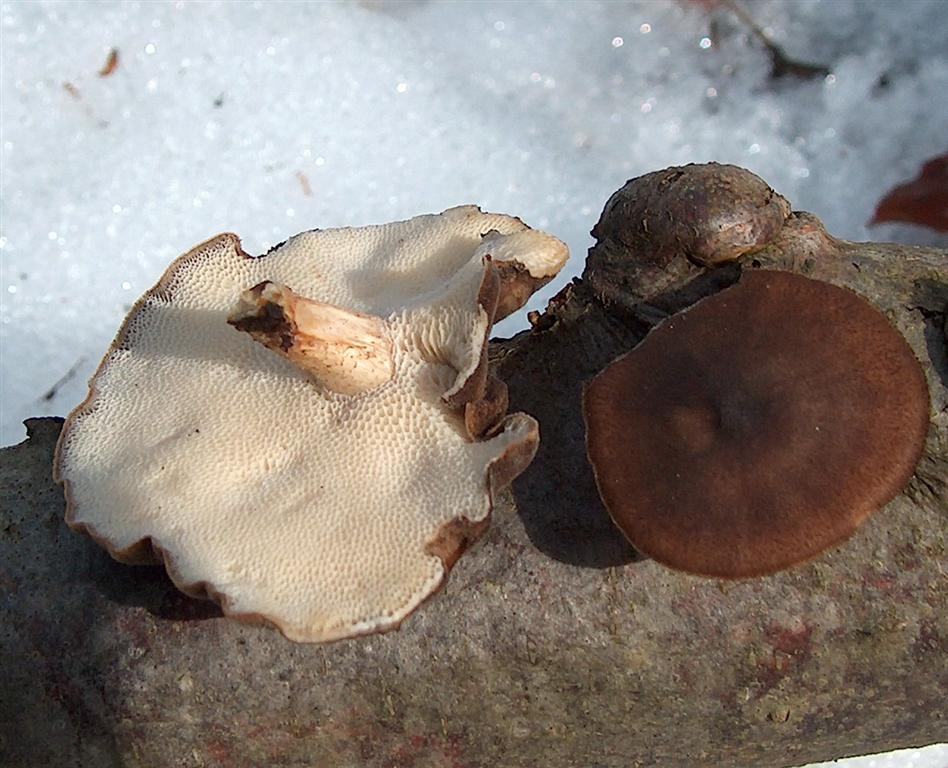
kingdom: Fungi
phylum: Basidiomycota
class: Agaricomycetes
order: Polyporales
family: Polyporaceae
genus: Lentinus
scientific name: Lentinus brumalis
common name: vinter-stilkporesvamp
